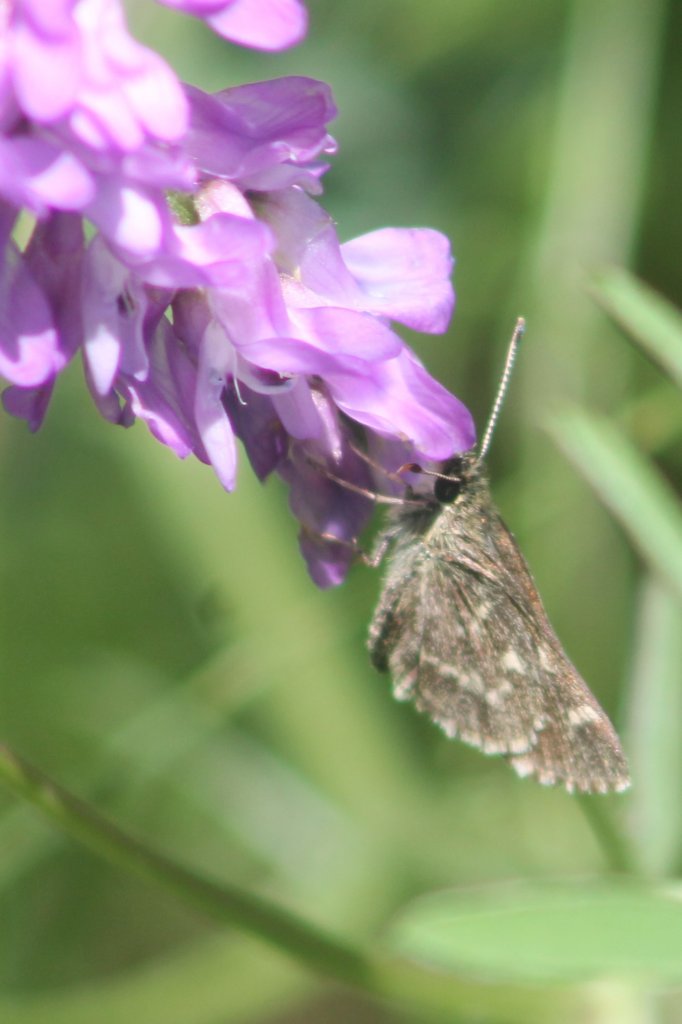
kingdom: Animalia
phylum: Arthropoda
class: Insecta
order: Lepidoptera
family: Hesperiidae
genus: Mastor
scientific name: Mastor hegon
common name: Pepper and Salt Skipper
